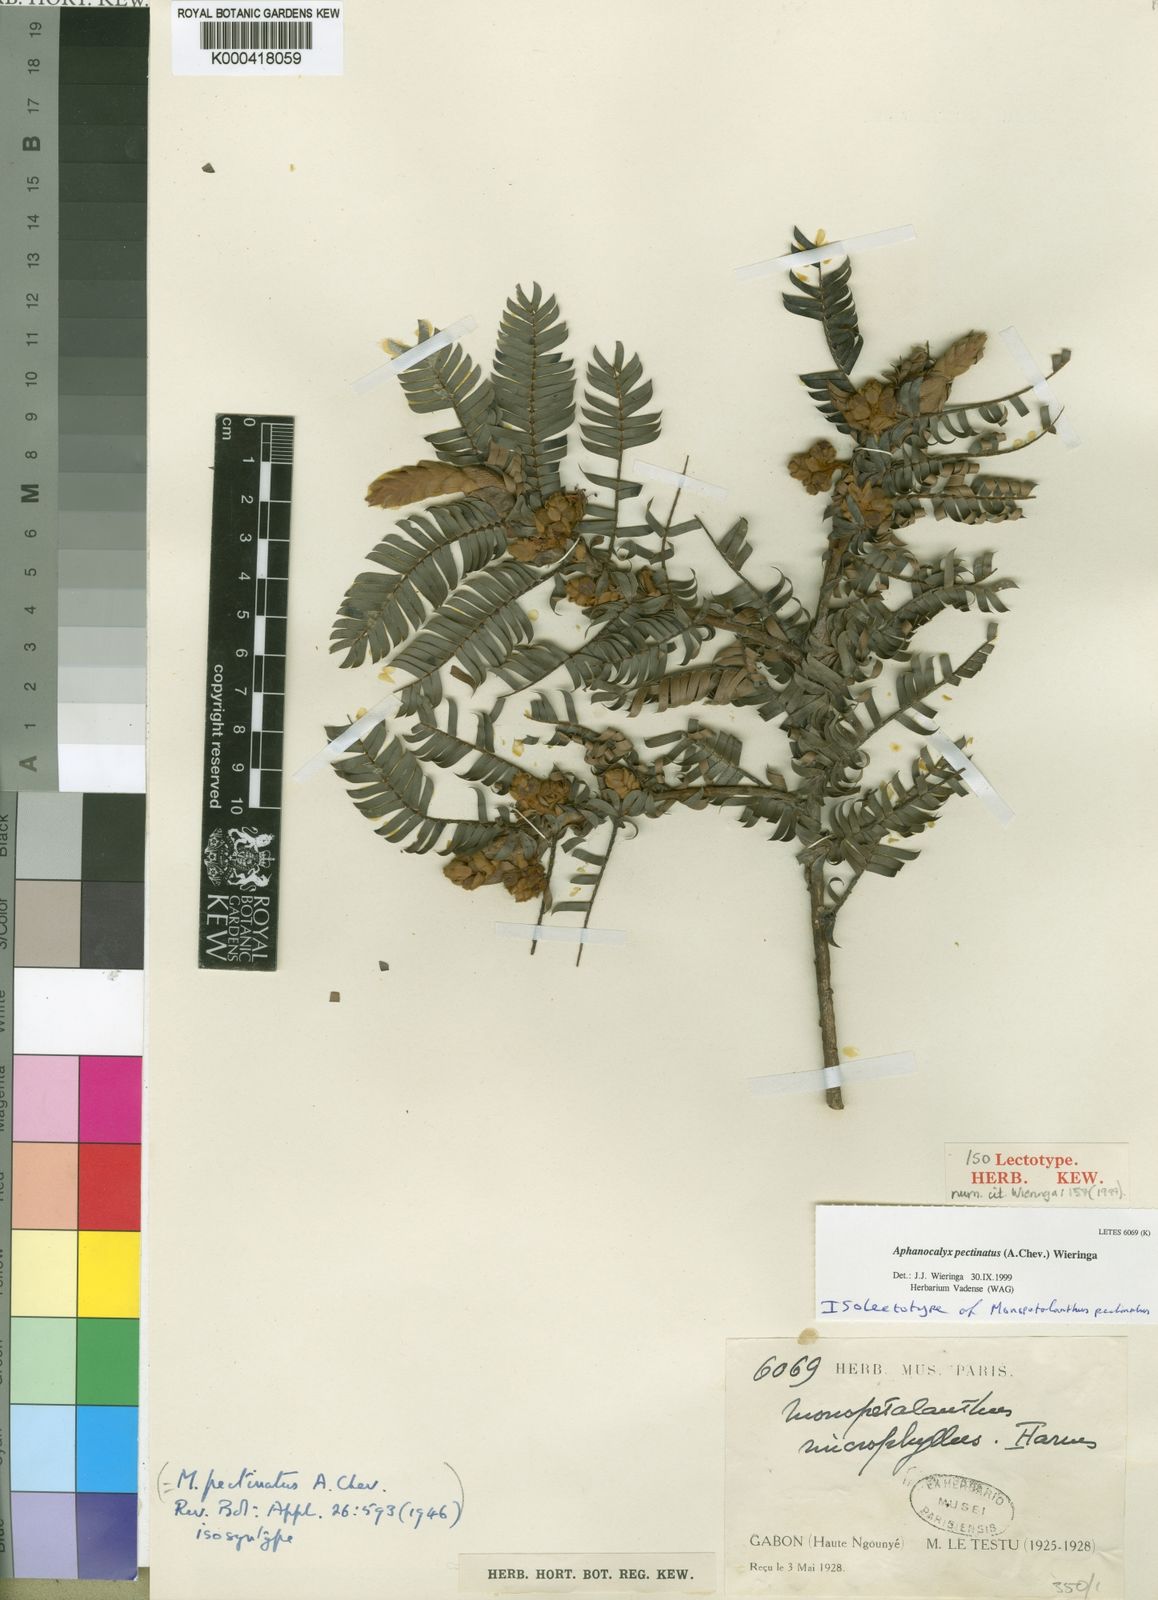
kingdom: Plantae
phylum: Tracheophyta
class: Magnoliopsida
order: Fabales
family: Fabaceae
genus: Aphanocalyx
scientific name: Aphanocalyx pectinatus
